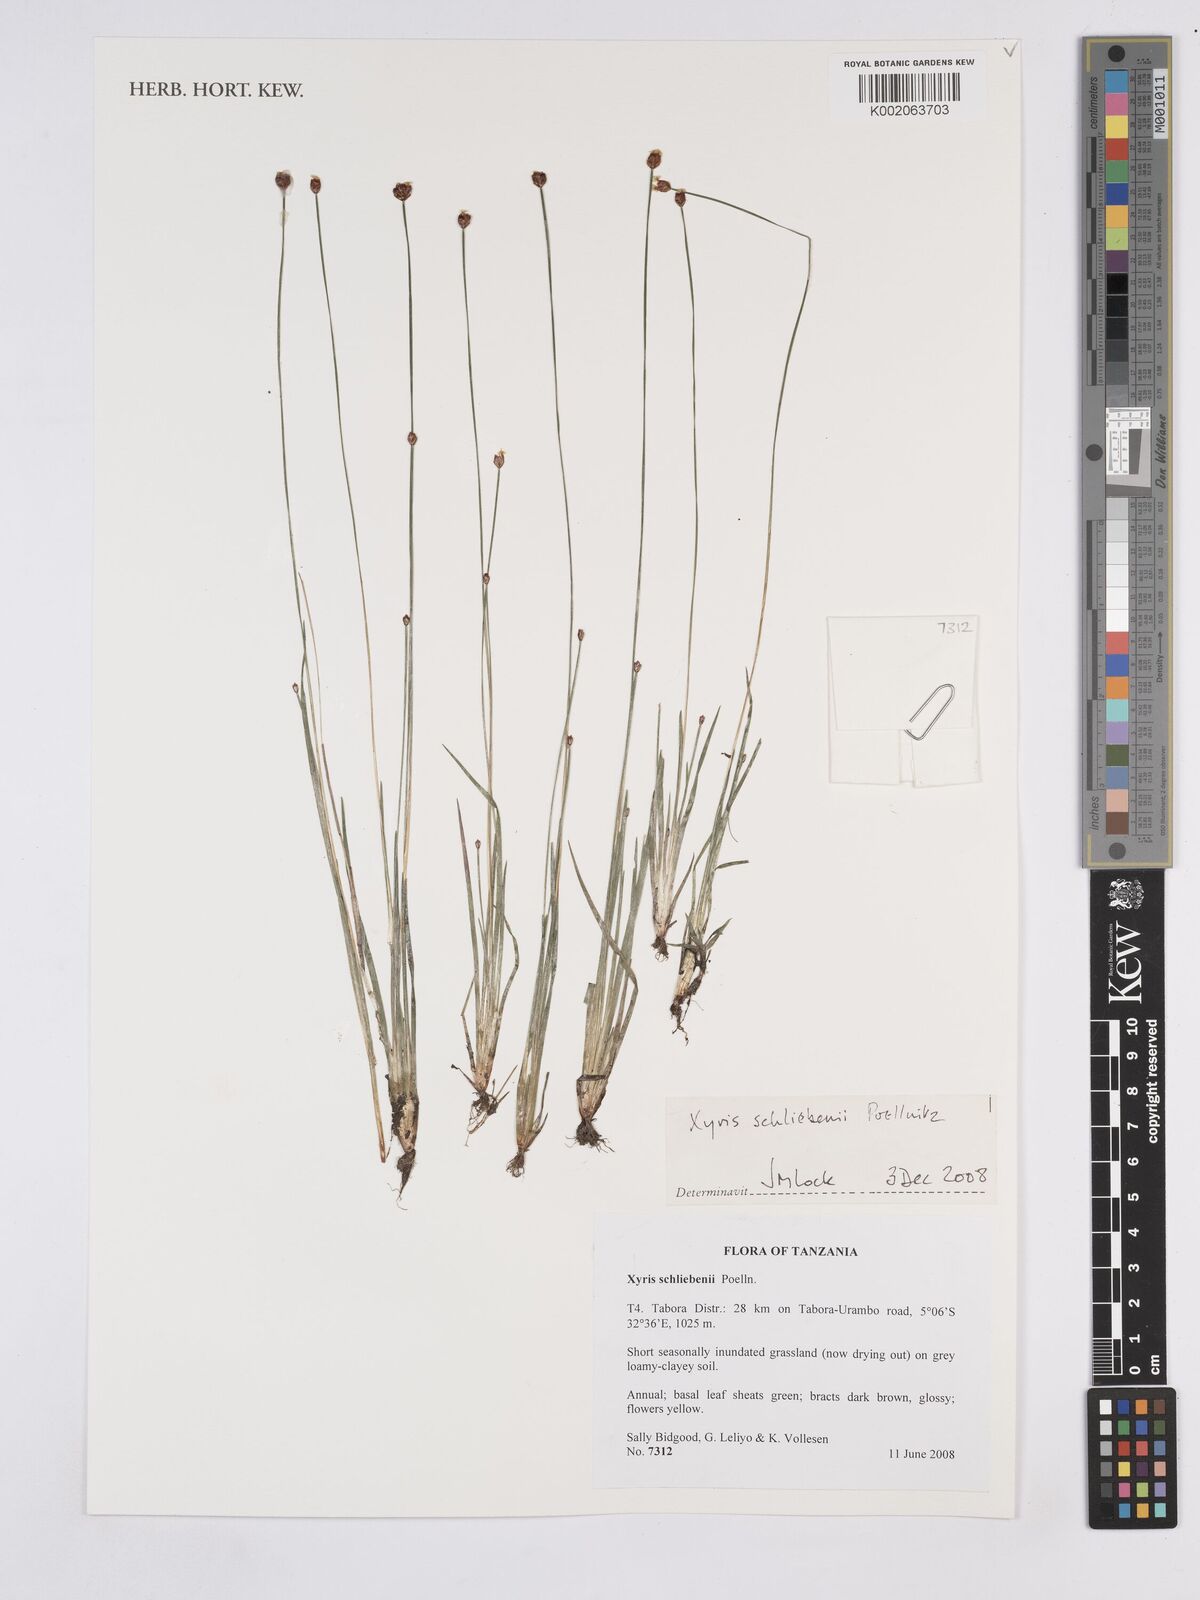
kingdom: Plantae
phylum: Tracheophyta
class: Liliopsida
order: Poales
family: Xyridaceae
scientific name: Xyridaceae
